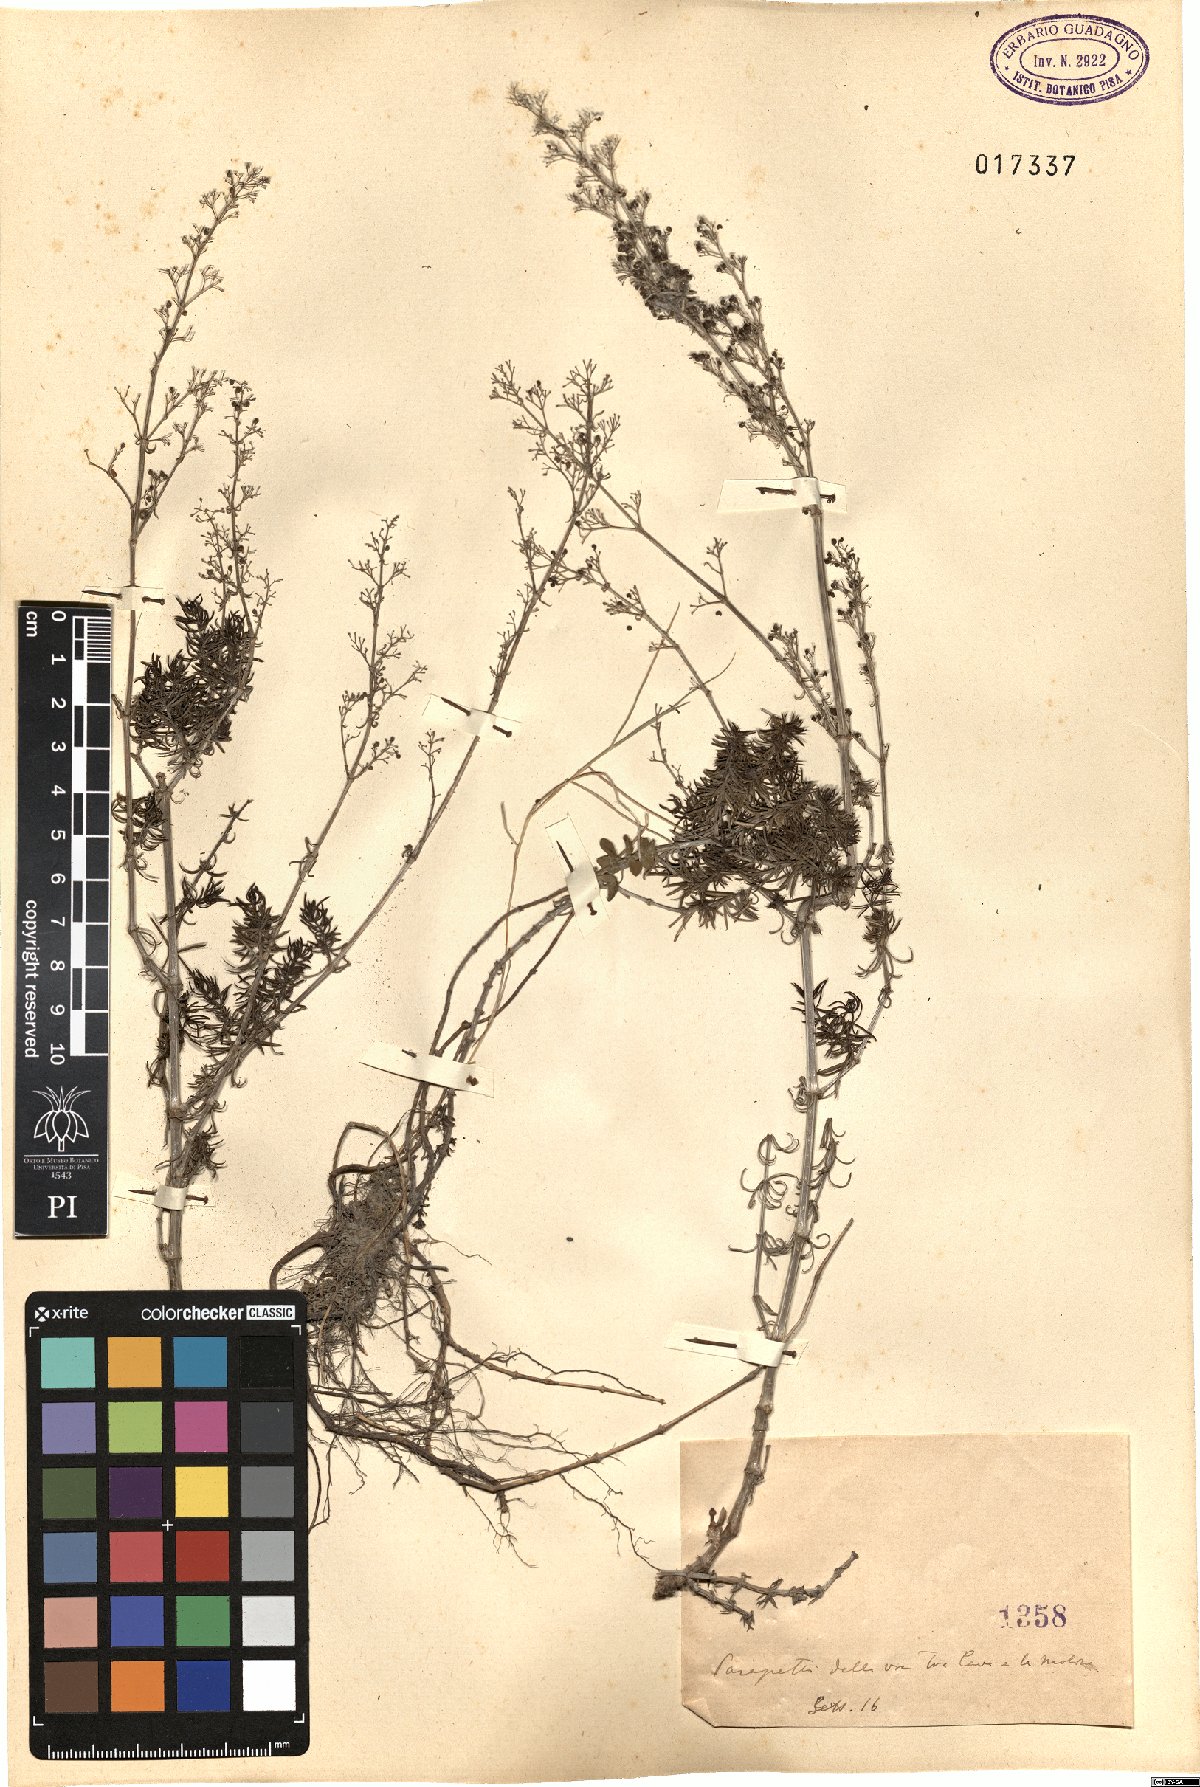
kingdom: Plantae
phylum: Tracheophyta
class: Magnoliopsida
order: Gentianales
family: Rubiaceae
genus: Galium
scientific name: Galium
